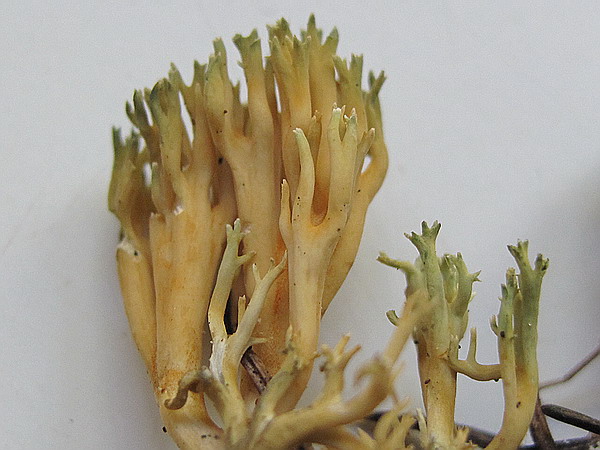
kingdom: Fungi
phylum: Basidiomycota
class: Agaricomycetes
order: Gomphales
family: Gomphaceae
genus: Phaeoclavulina
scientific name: Phaeoclavulina abietina
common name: gulgrøn koralsvamp
